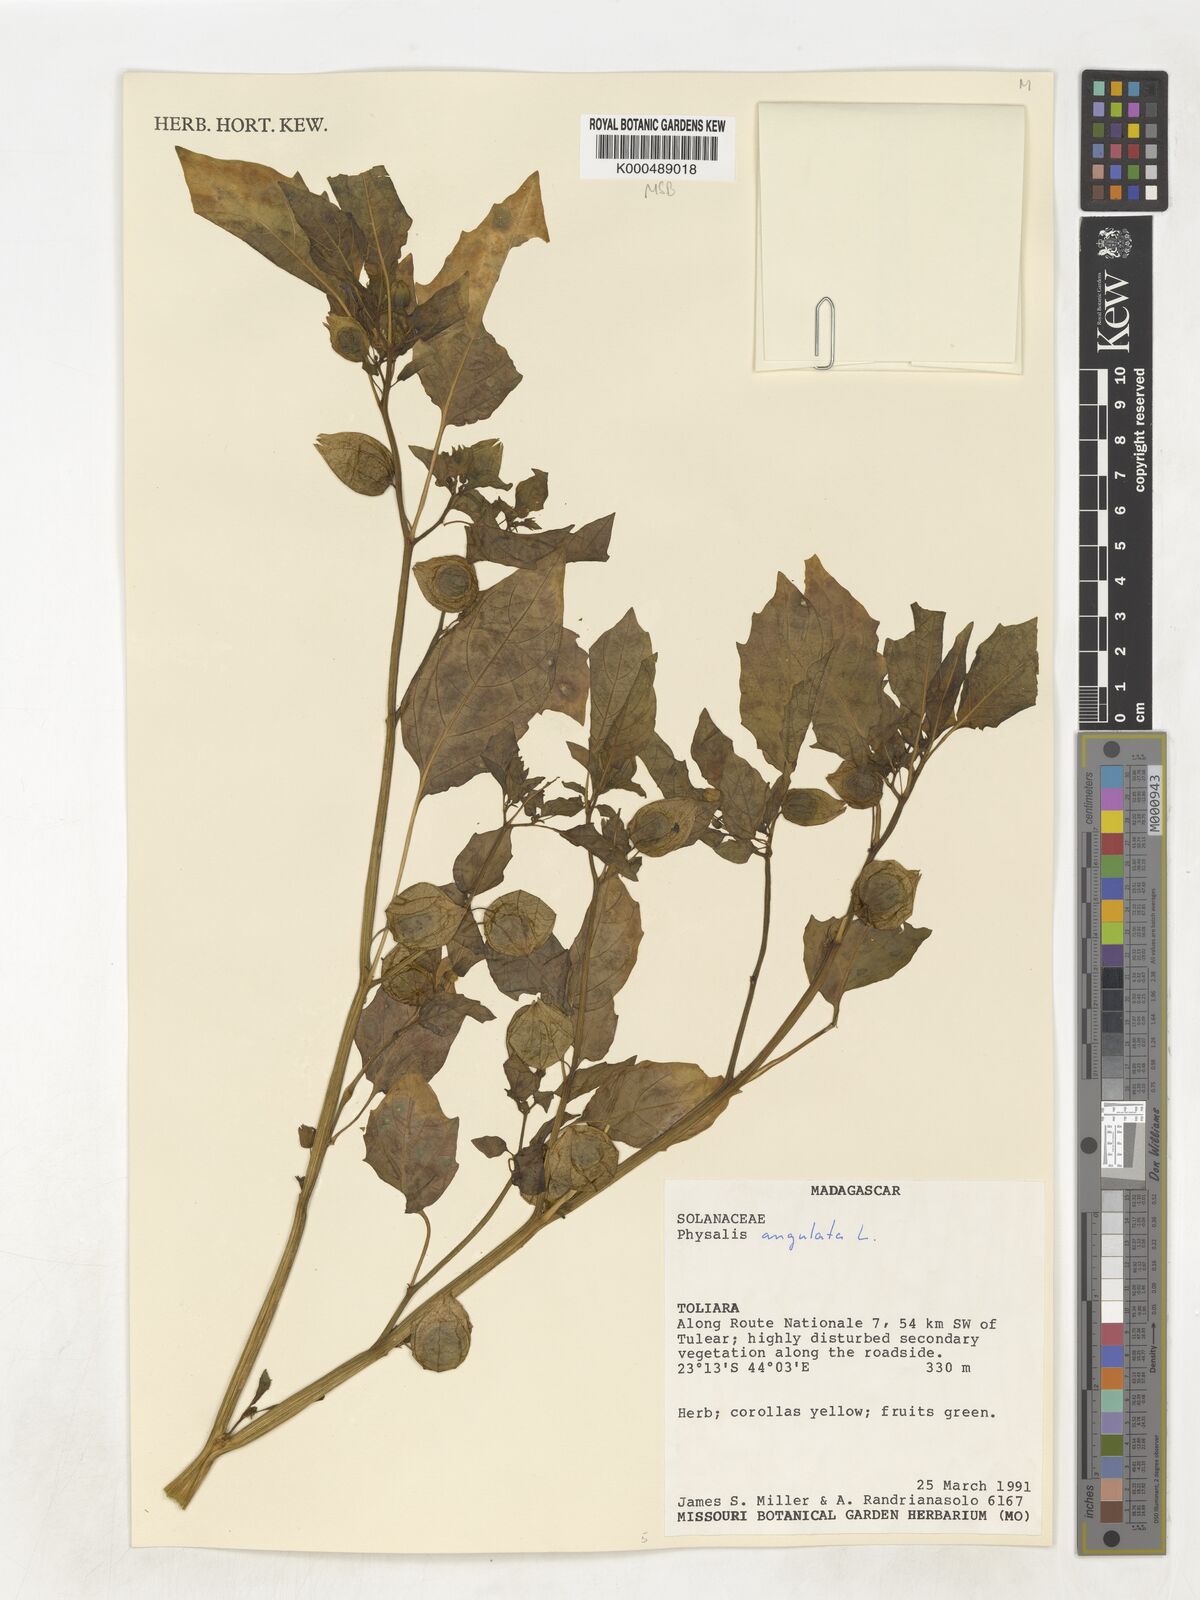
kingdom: Plantae
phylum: Tracheophyta
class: Magnoliopsida
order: Solanales
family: Solanaceae
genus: Physalis
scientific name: Physalis angulata
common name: Angular winter-cherry
